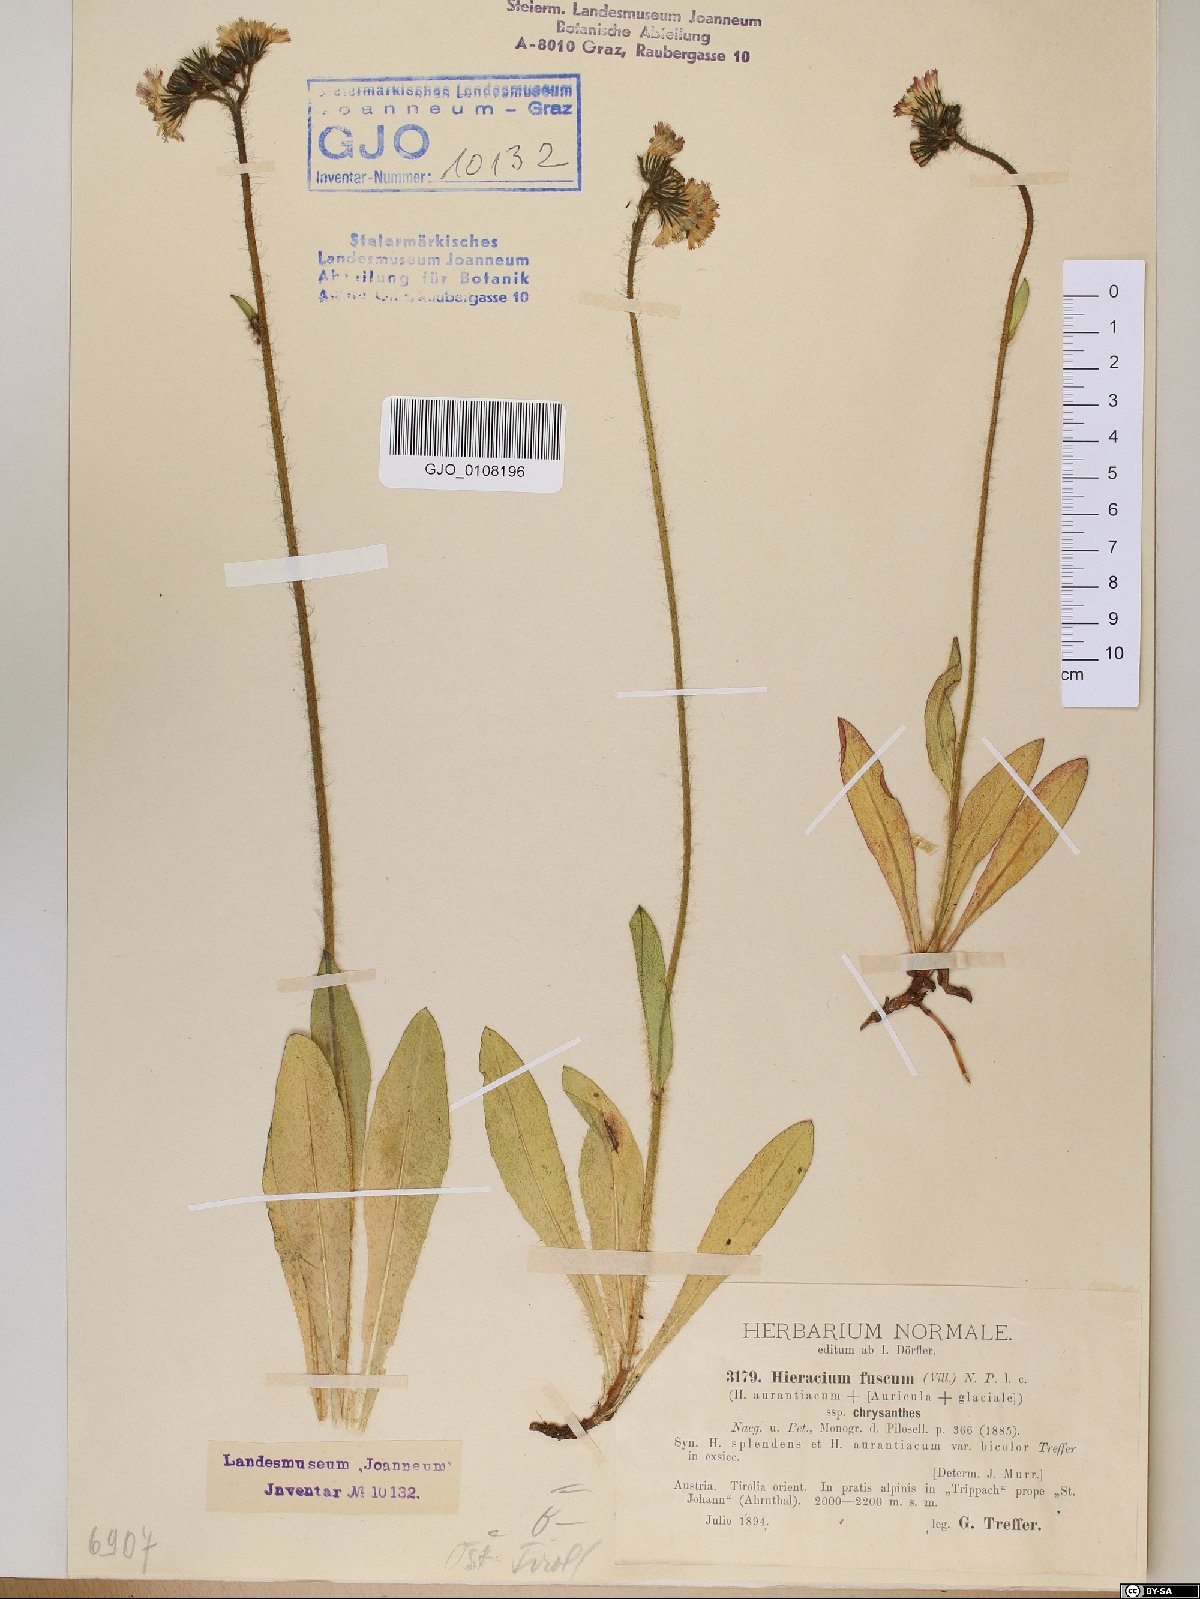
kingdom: Plantae
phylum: Tracheophyta
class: Magnoliopsida
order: Asterales
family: Asteraceae
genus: Pilosella
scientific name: Pilosella fusca
